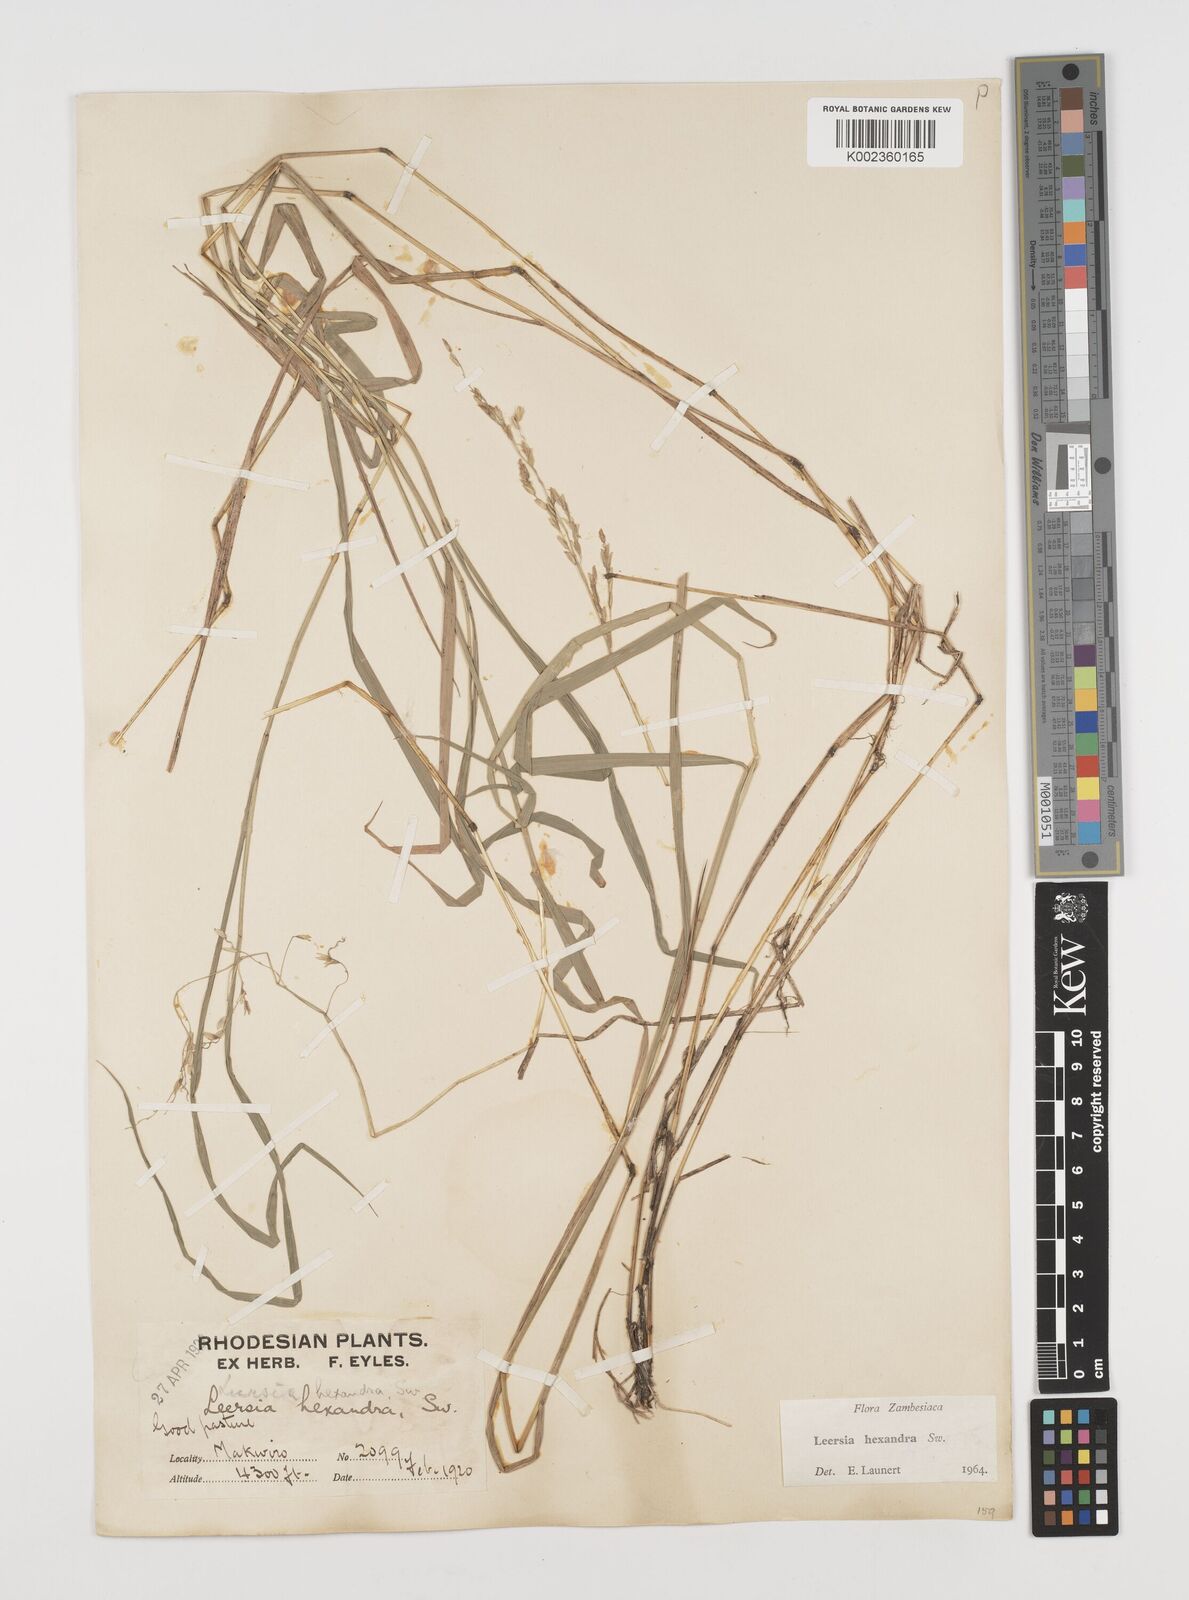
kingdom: Plantae
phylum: Tracheophyta
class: Liliopsida
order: Poales
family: Poaceae
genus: Leersia
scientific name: Leersia hexandra
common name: Southern cut grass
